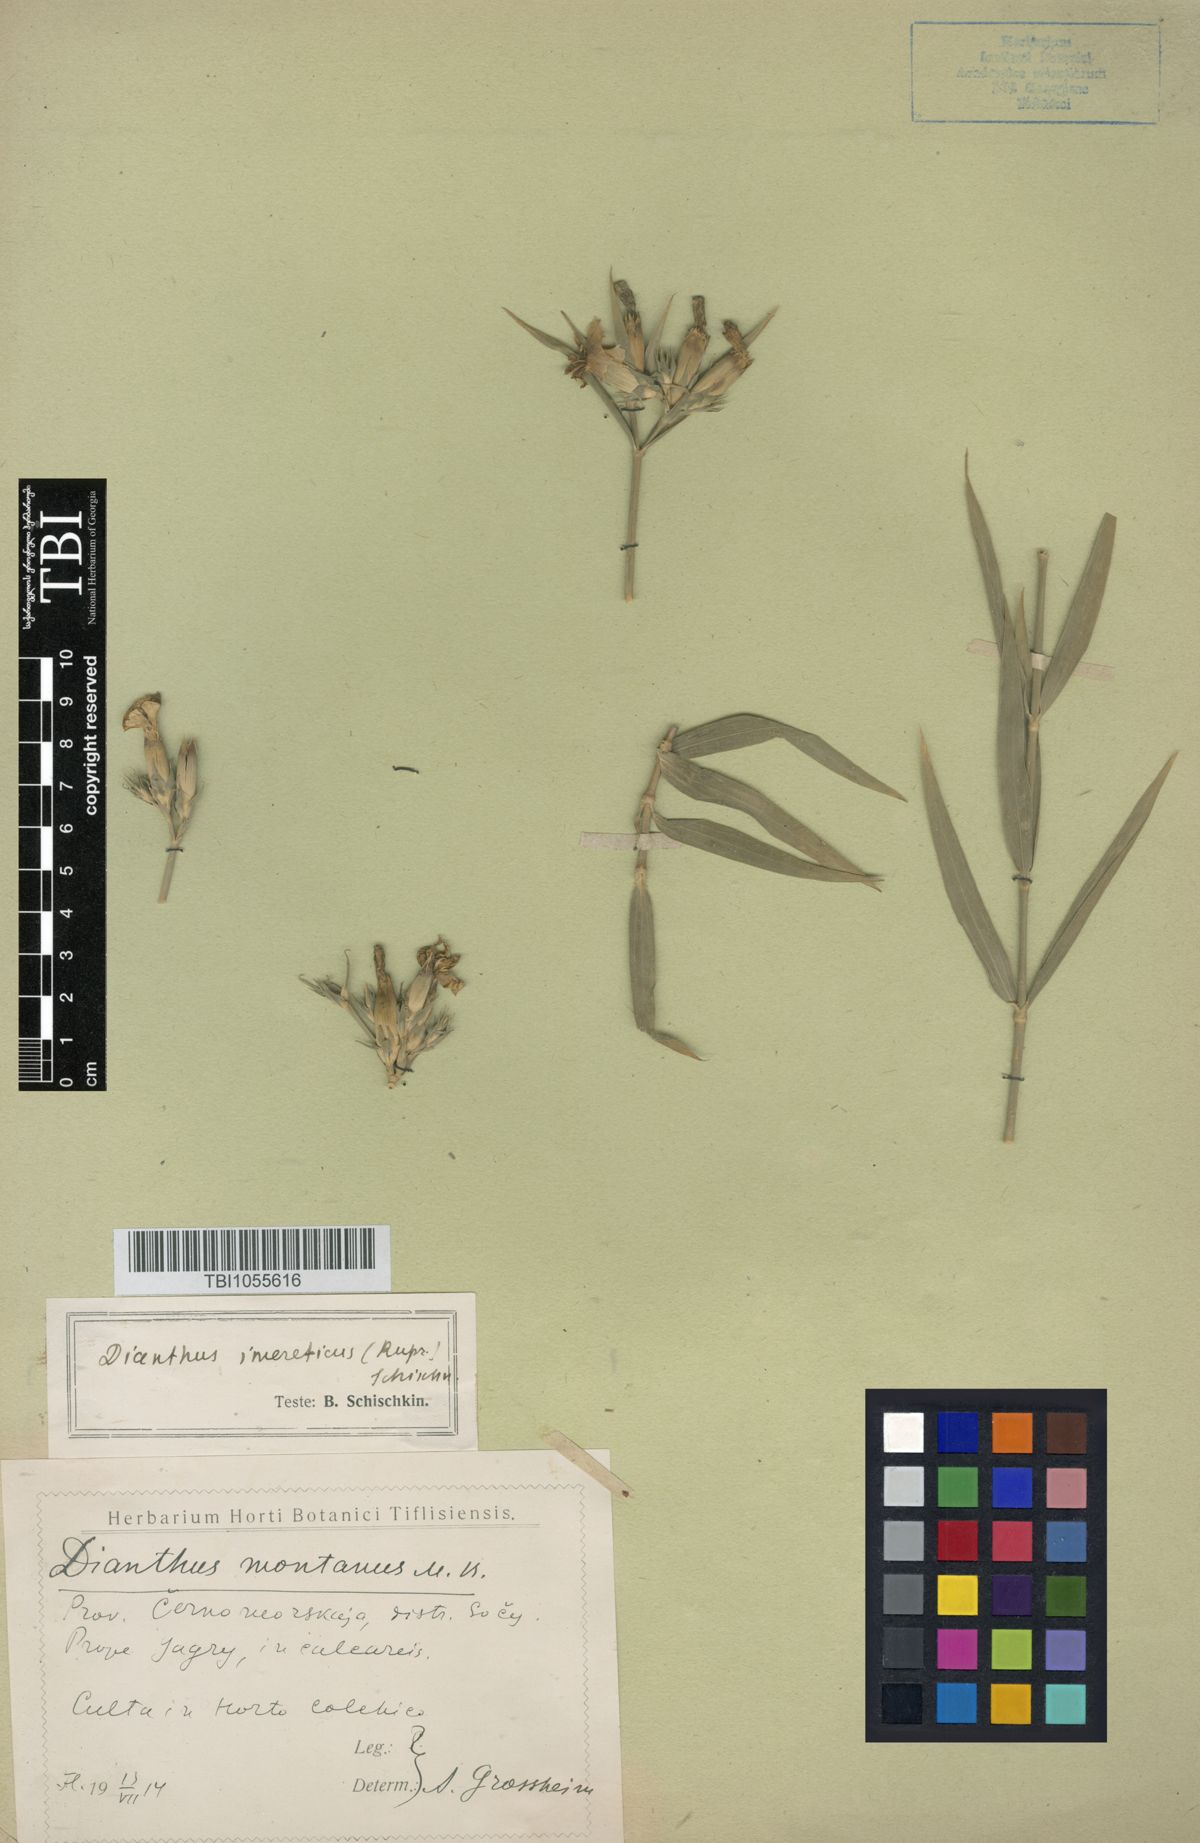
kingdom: Plantae
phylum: Tracheophyta
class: Magnoliopsida
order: Caryophyllales
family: Caryophyllaceae
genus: Dianthus
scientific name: Dianthus imereticus
